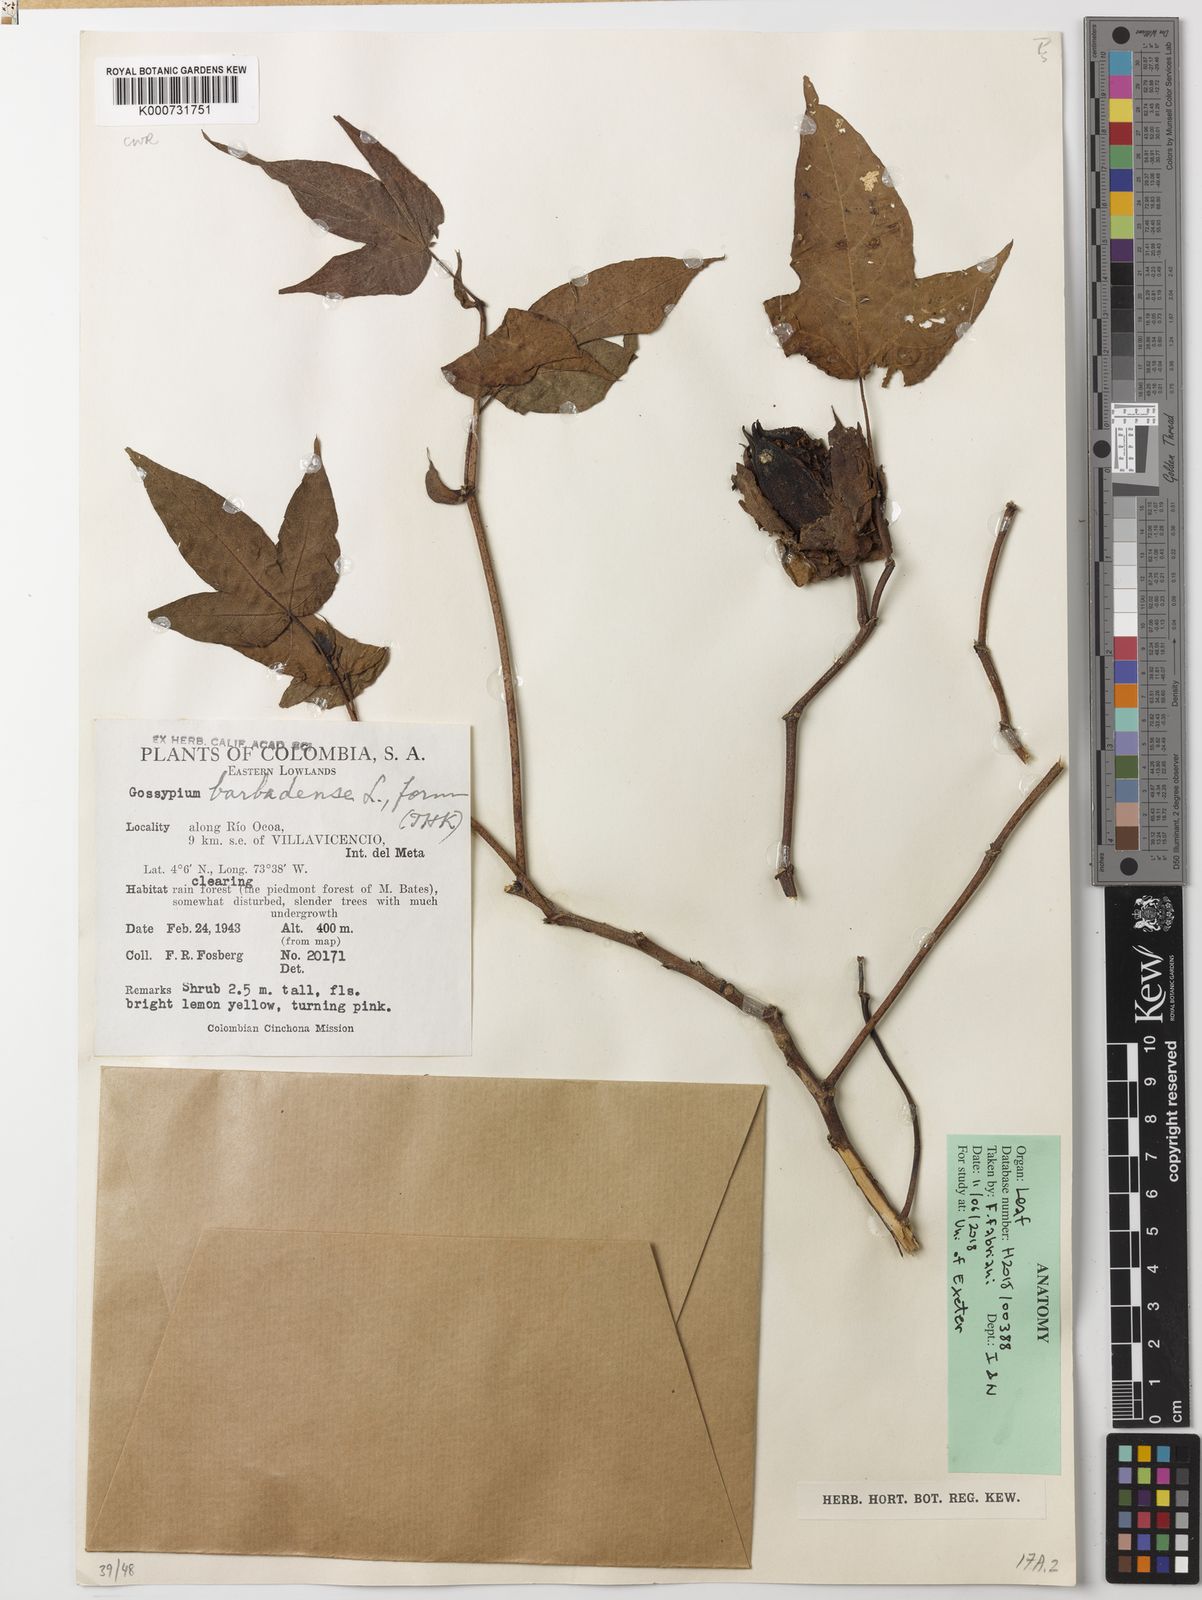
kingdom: Plantae
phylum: Tracheophyta
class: Magnoliopsida
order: Malvales
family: Malvaceae
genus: Gossypium
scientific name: Gossypium barbadense
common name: Creole cotton
